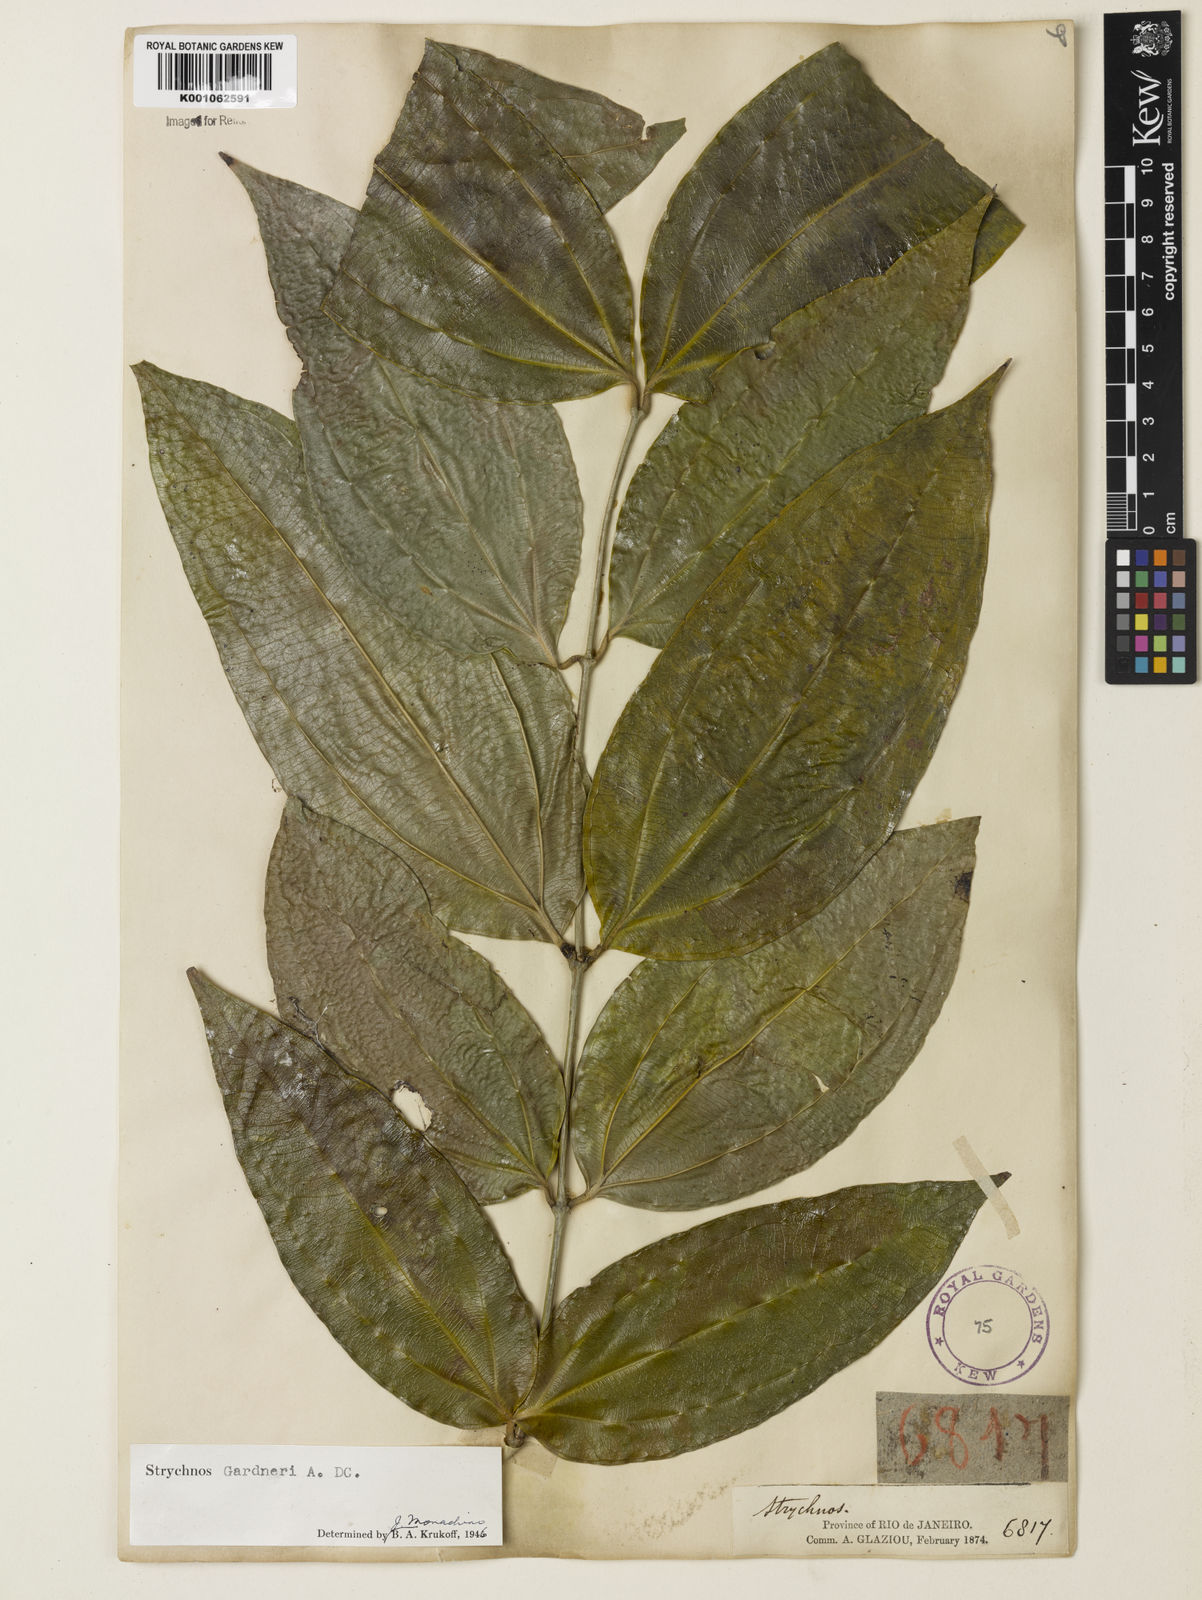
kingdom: Plantae
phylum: Tracheophyta
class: Magnoliopsida
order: Gentianales
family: Loganiaceae
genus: Strychnos
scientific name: Strychnos gardneri
